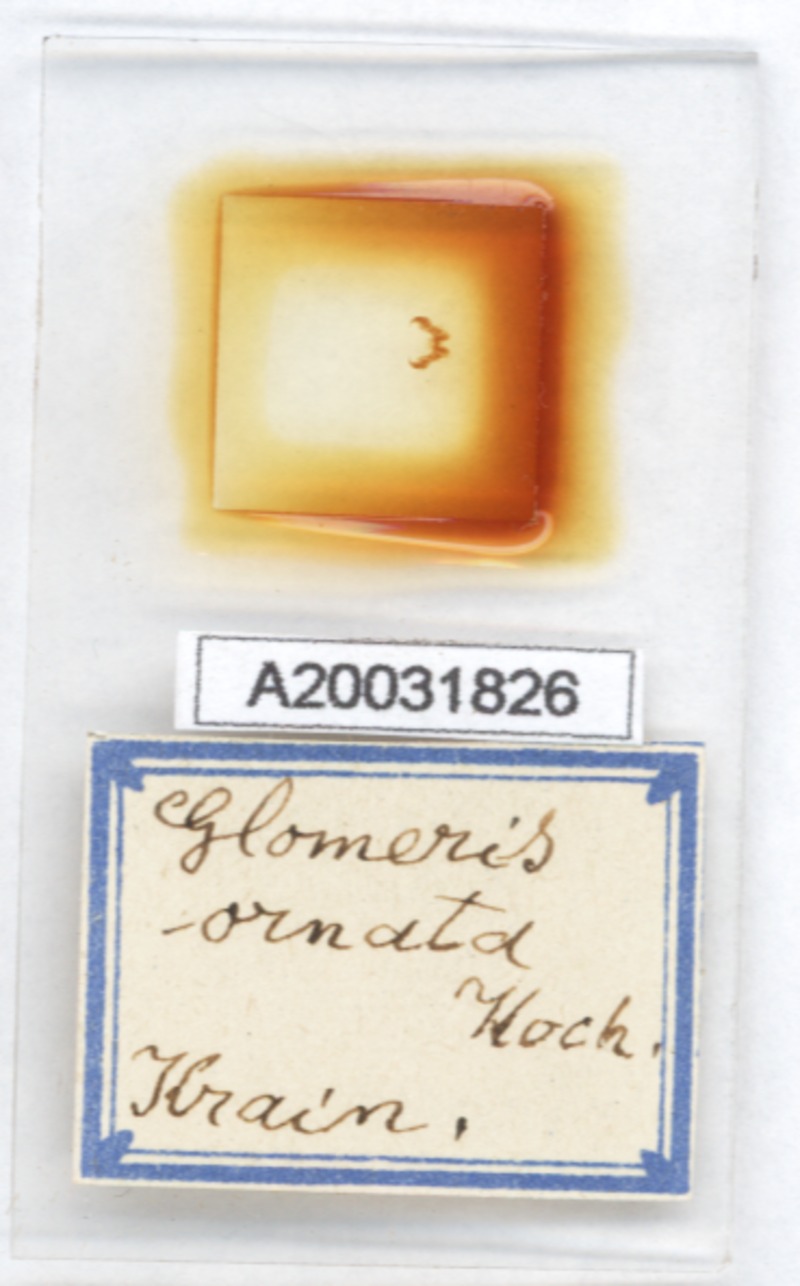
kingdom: Animalia
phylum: Arthropoda
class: Diplopoda
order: Glomerida
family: Glomeridae
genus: Glomeris
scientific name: Glomeris ornata
